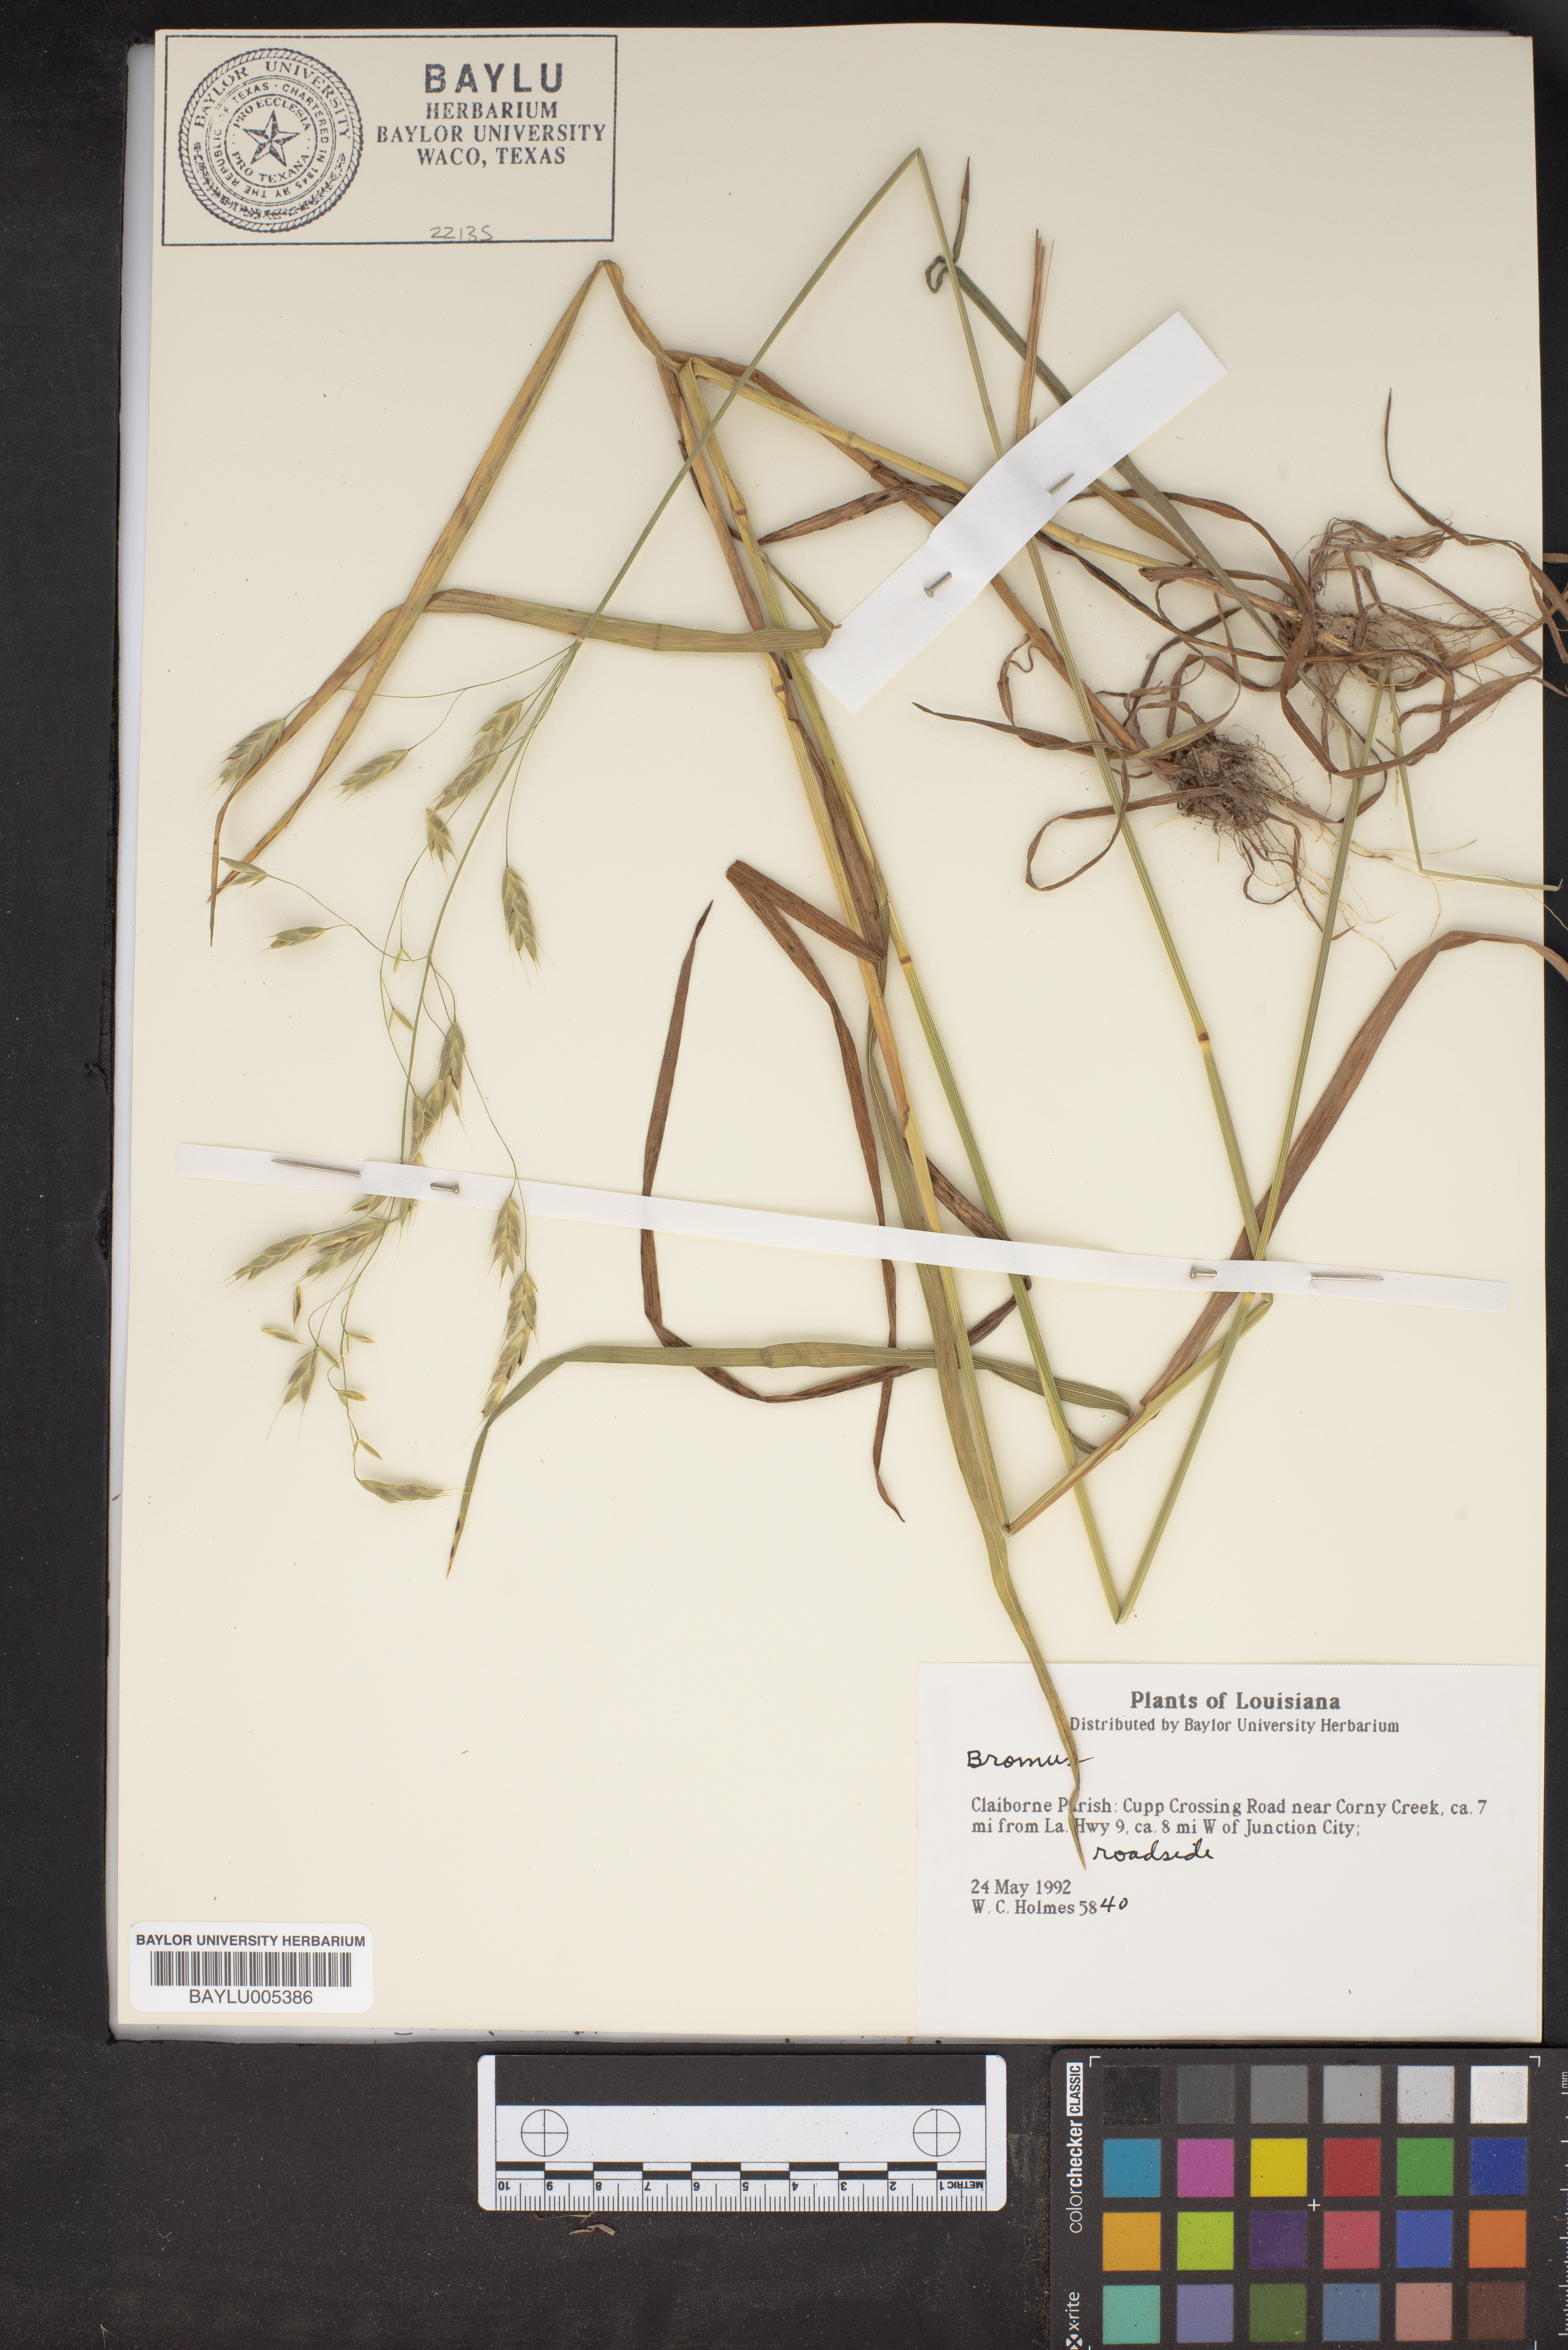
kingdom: Plantae
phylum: Tracheophyta
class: Liliopsida
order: Poales
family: Poaceae
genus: Bromus
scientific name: Bromus
